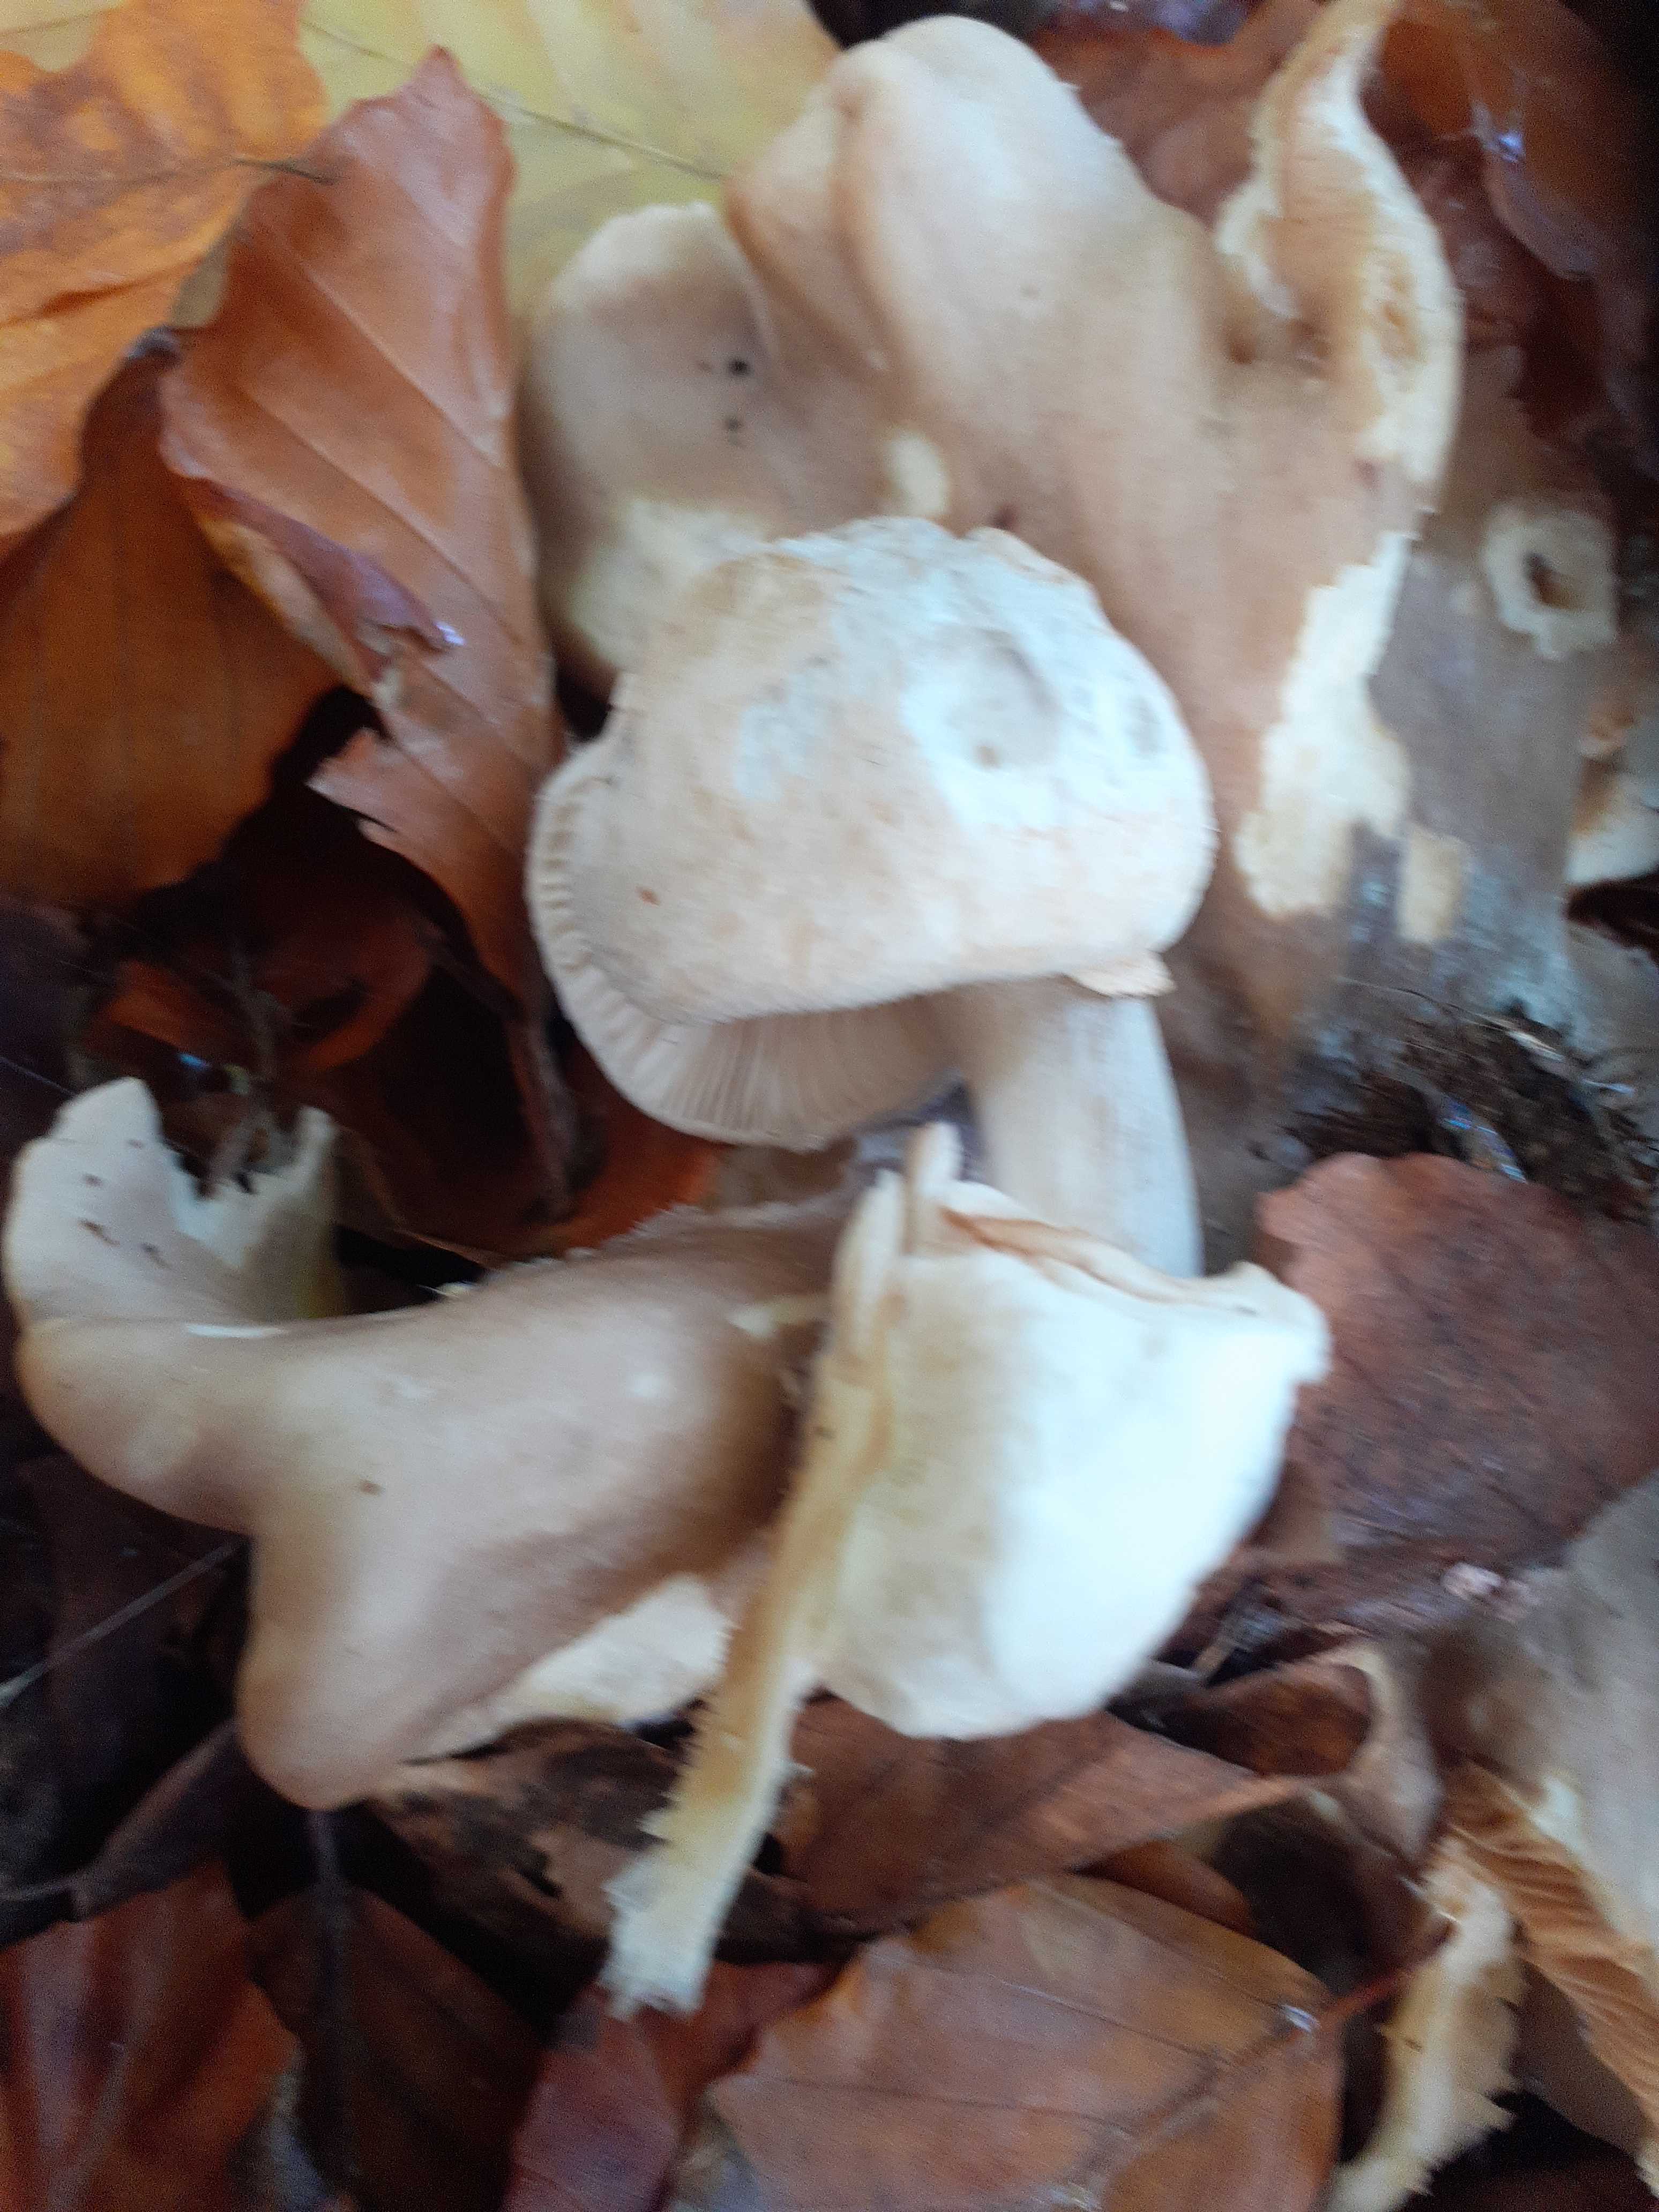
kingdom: Fungi
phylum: Basidiomycota
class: Agaricomycetes
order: Agaricales
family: Pluteaceae
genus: Volvariella
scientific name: Volvariella surrecta
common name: snyltende posesvamp
